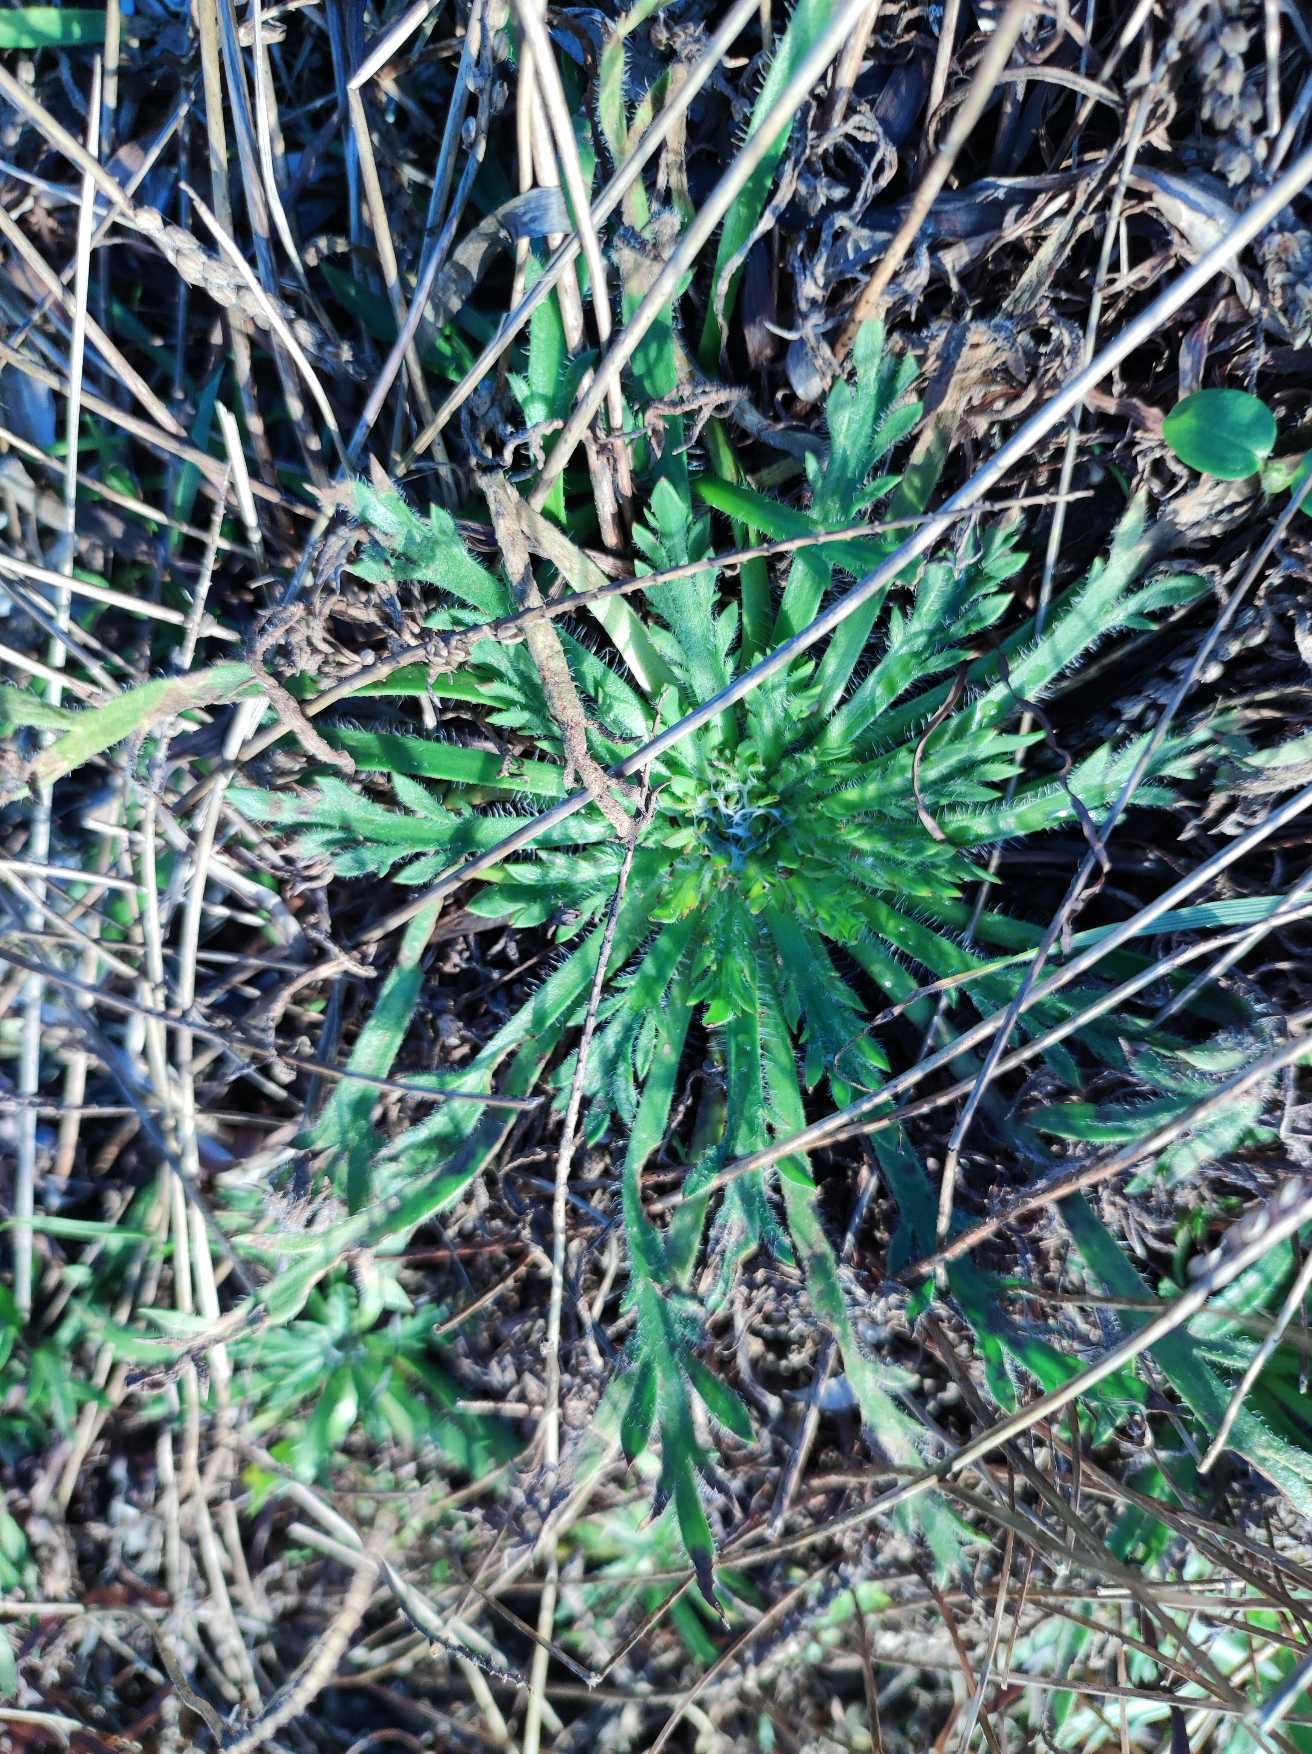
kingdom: Plantae
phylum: Tracheophyta
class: Magnoliopsida
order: Lamiales
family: Plantaginaceae
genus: Plantago
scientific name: Plantago coronopus
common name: Fliget vejbred
